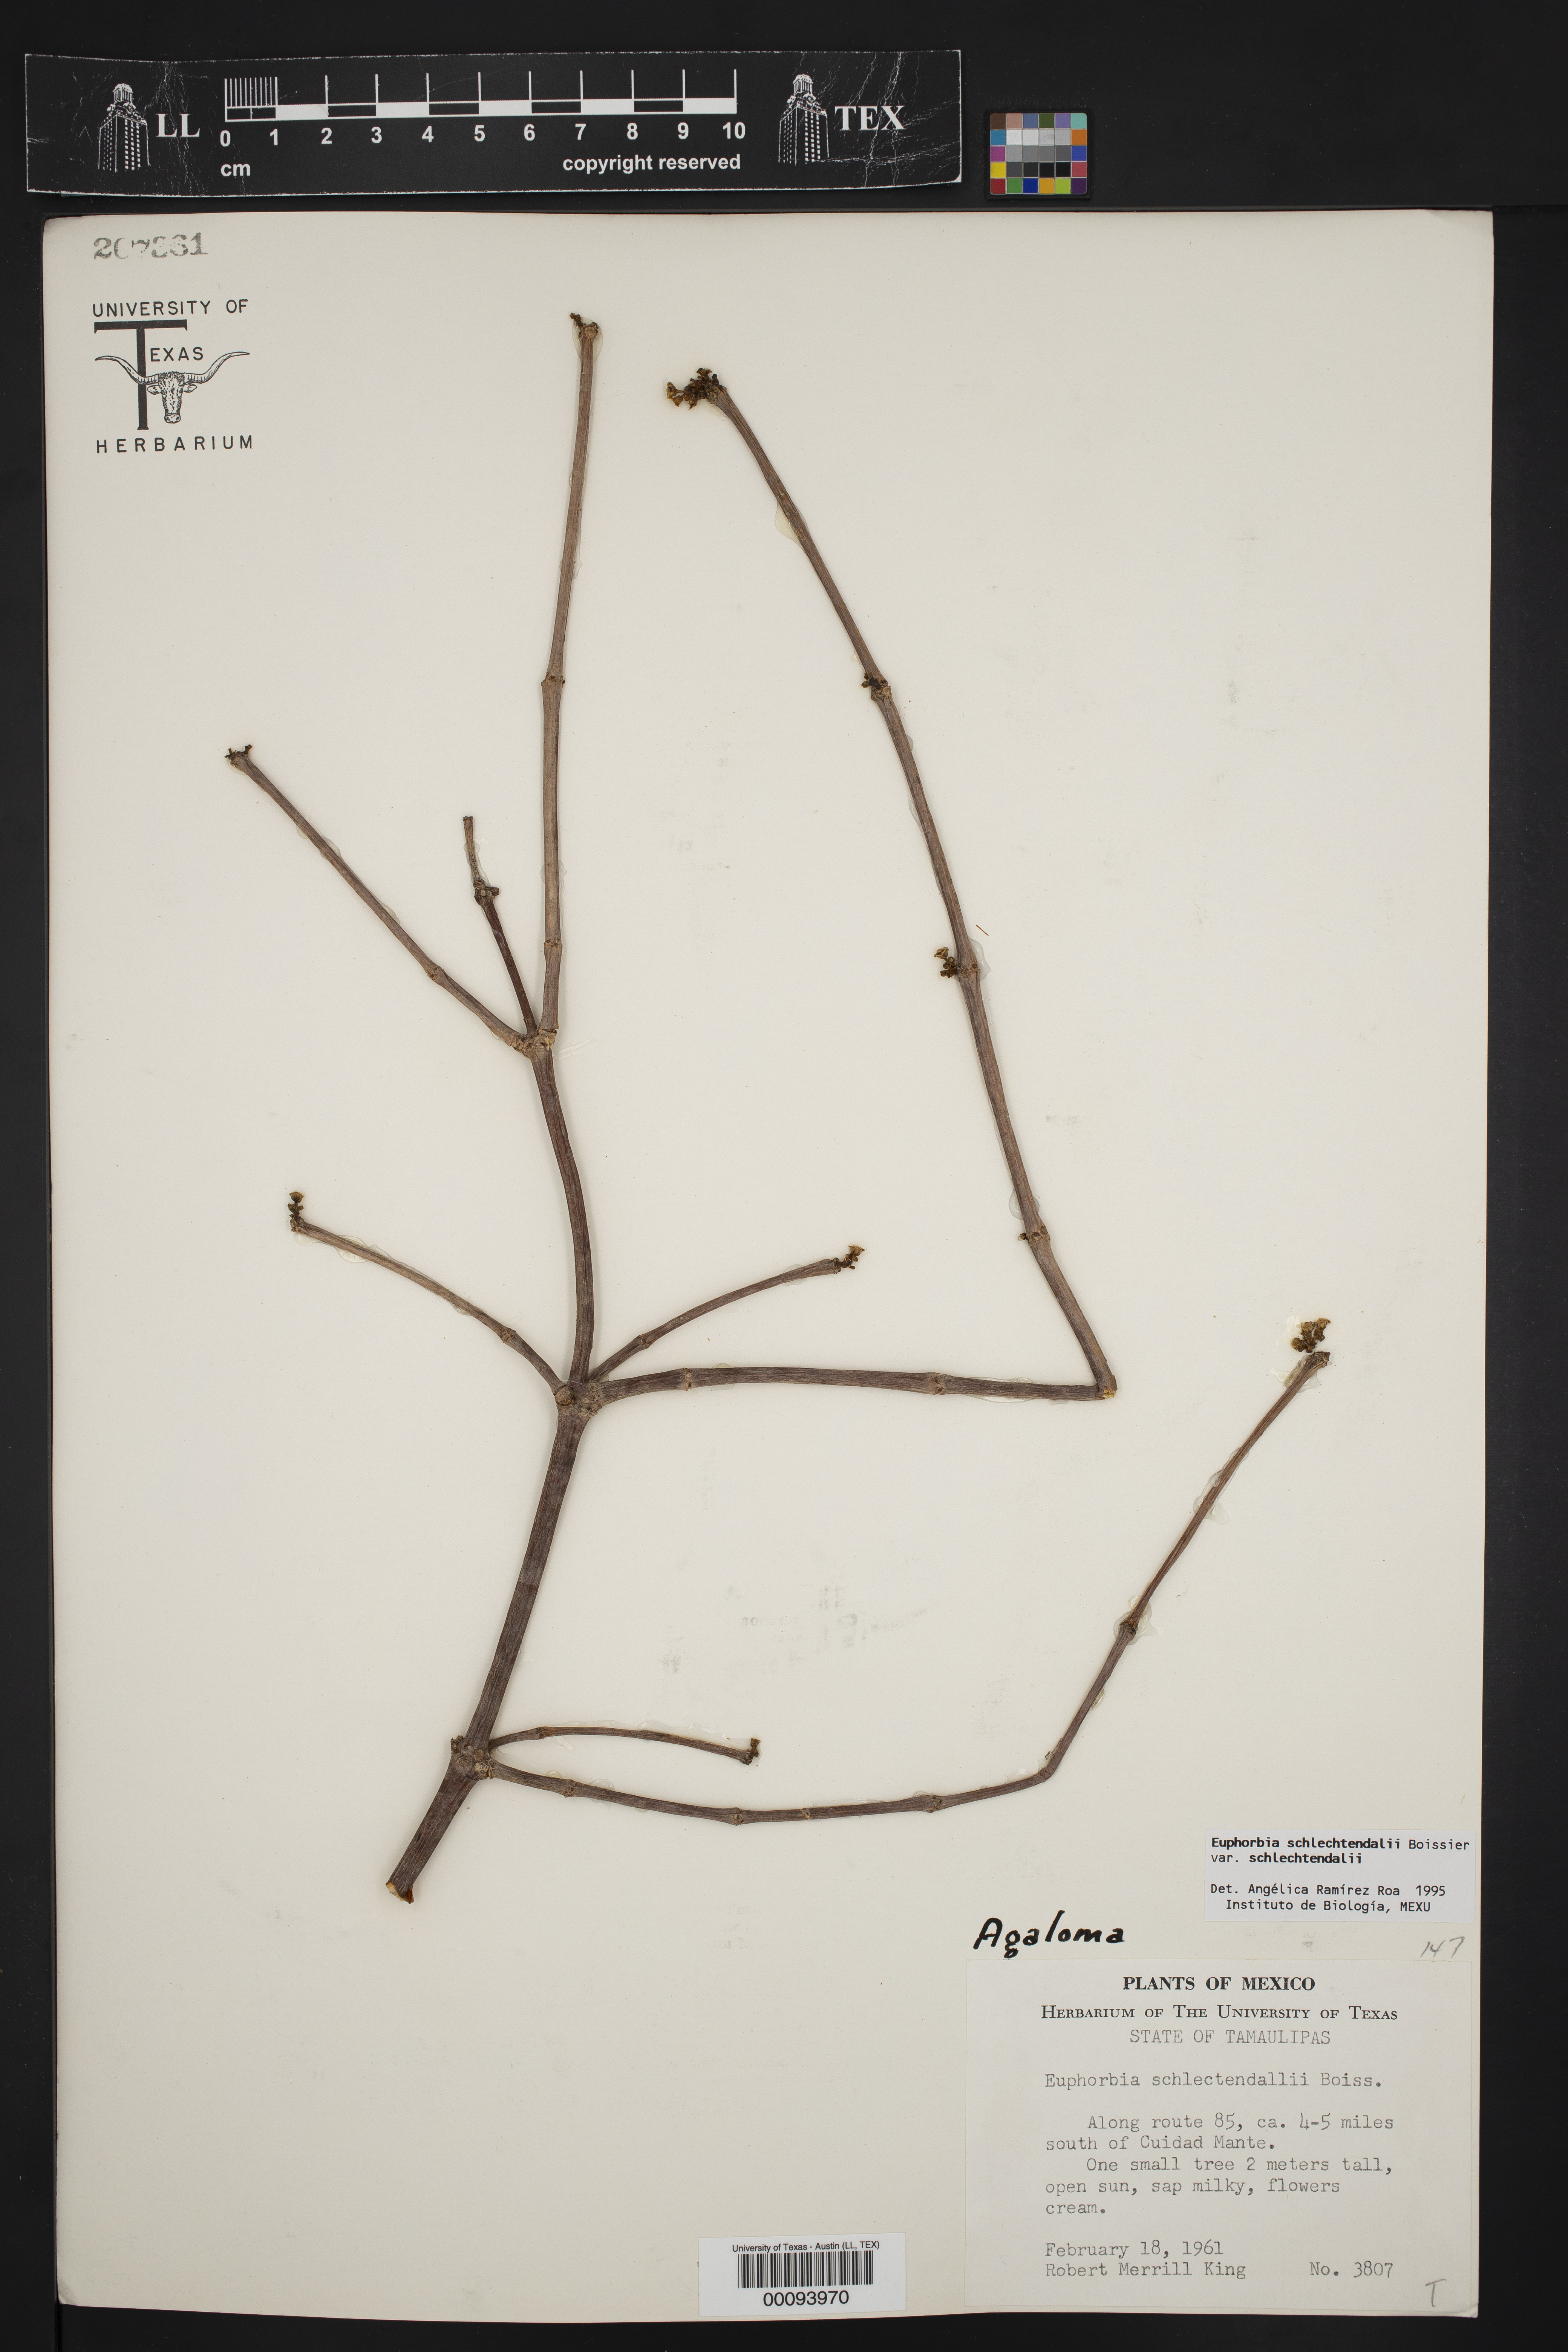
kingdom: Plantae
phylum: Tracheophyta
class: Magnoliopsida
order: Malpighiales
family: Euphorbiaceae
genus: Euphorbia
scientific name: Euphorbia schlechtendalii
